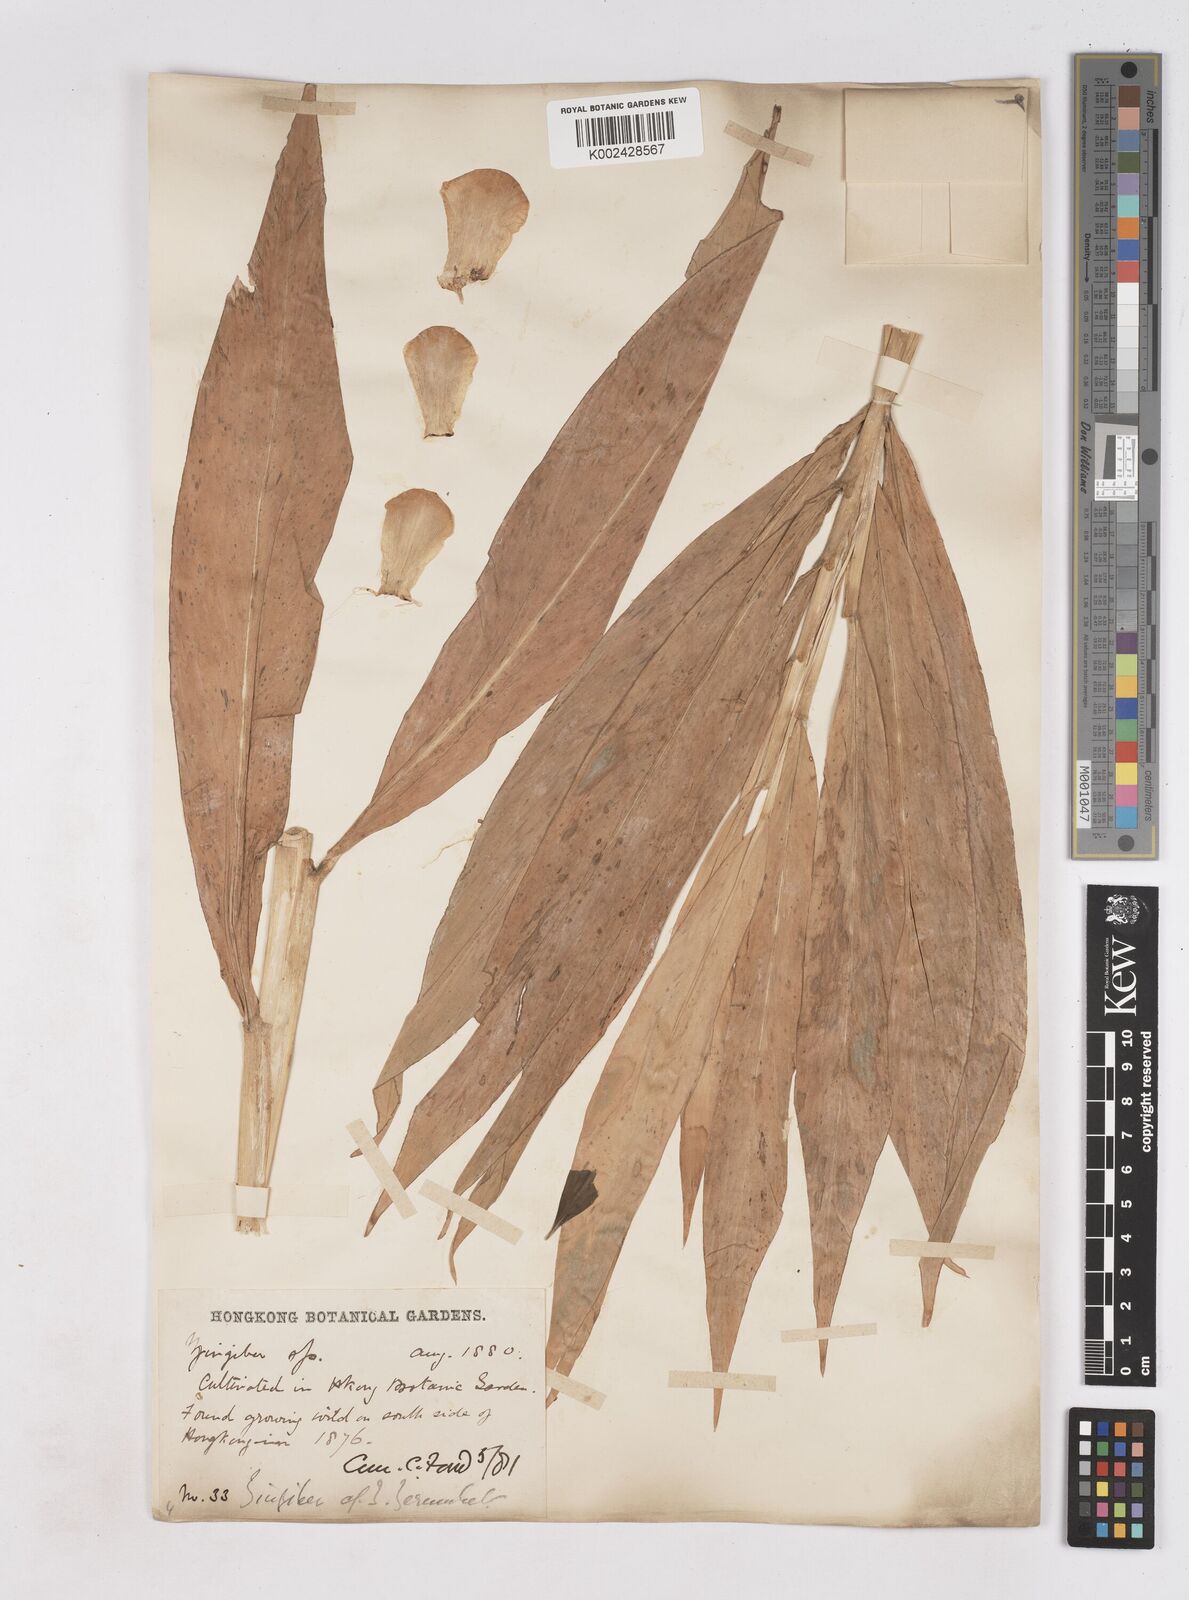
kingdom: Plantae
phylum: Tracheophyta
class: Liliopsida
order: Zingiberales
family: Zingiberaceae
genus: Zingiber
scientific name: Zingiber
